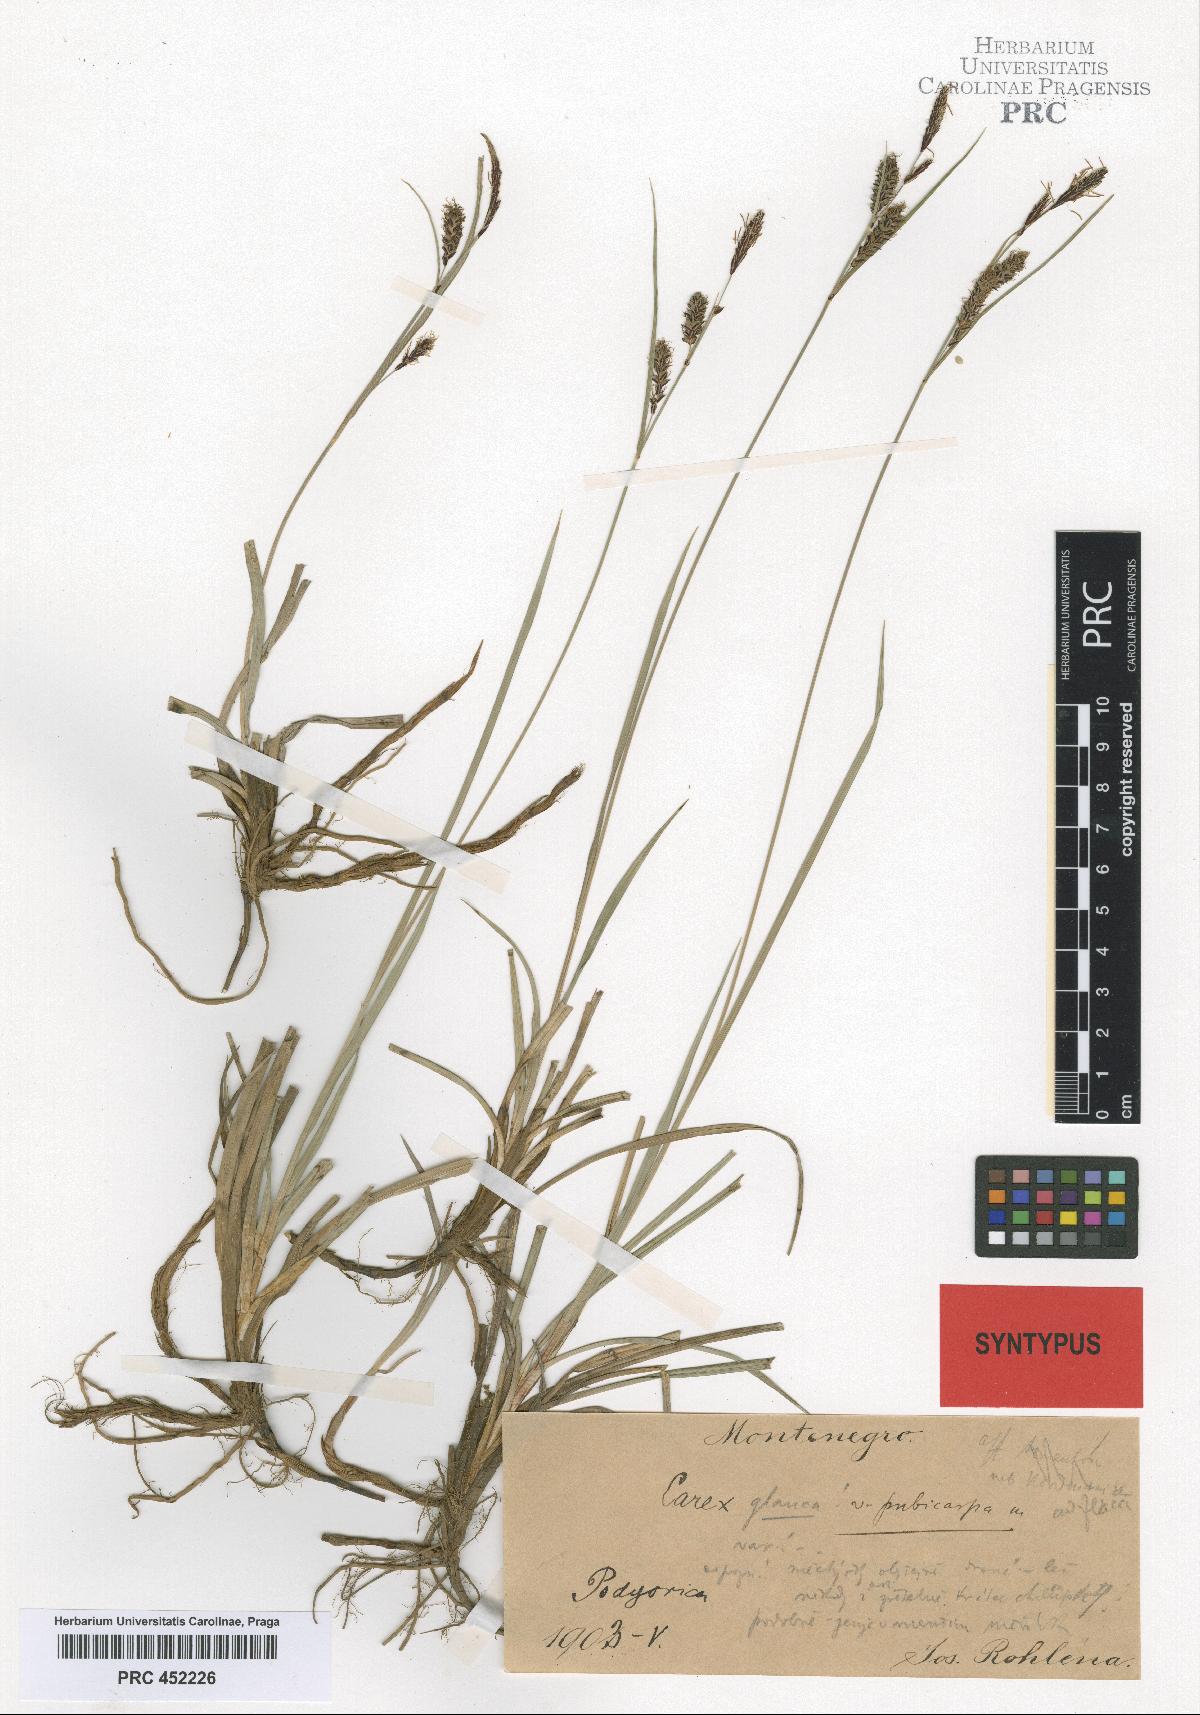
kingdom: Plantae
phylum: Tracheophyta
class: Liliopsida
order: Poales
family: Cyperaceae
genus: Carex
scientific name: Carex flacca
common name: Glaucous sedge
